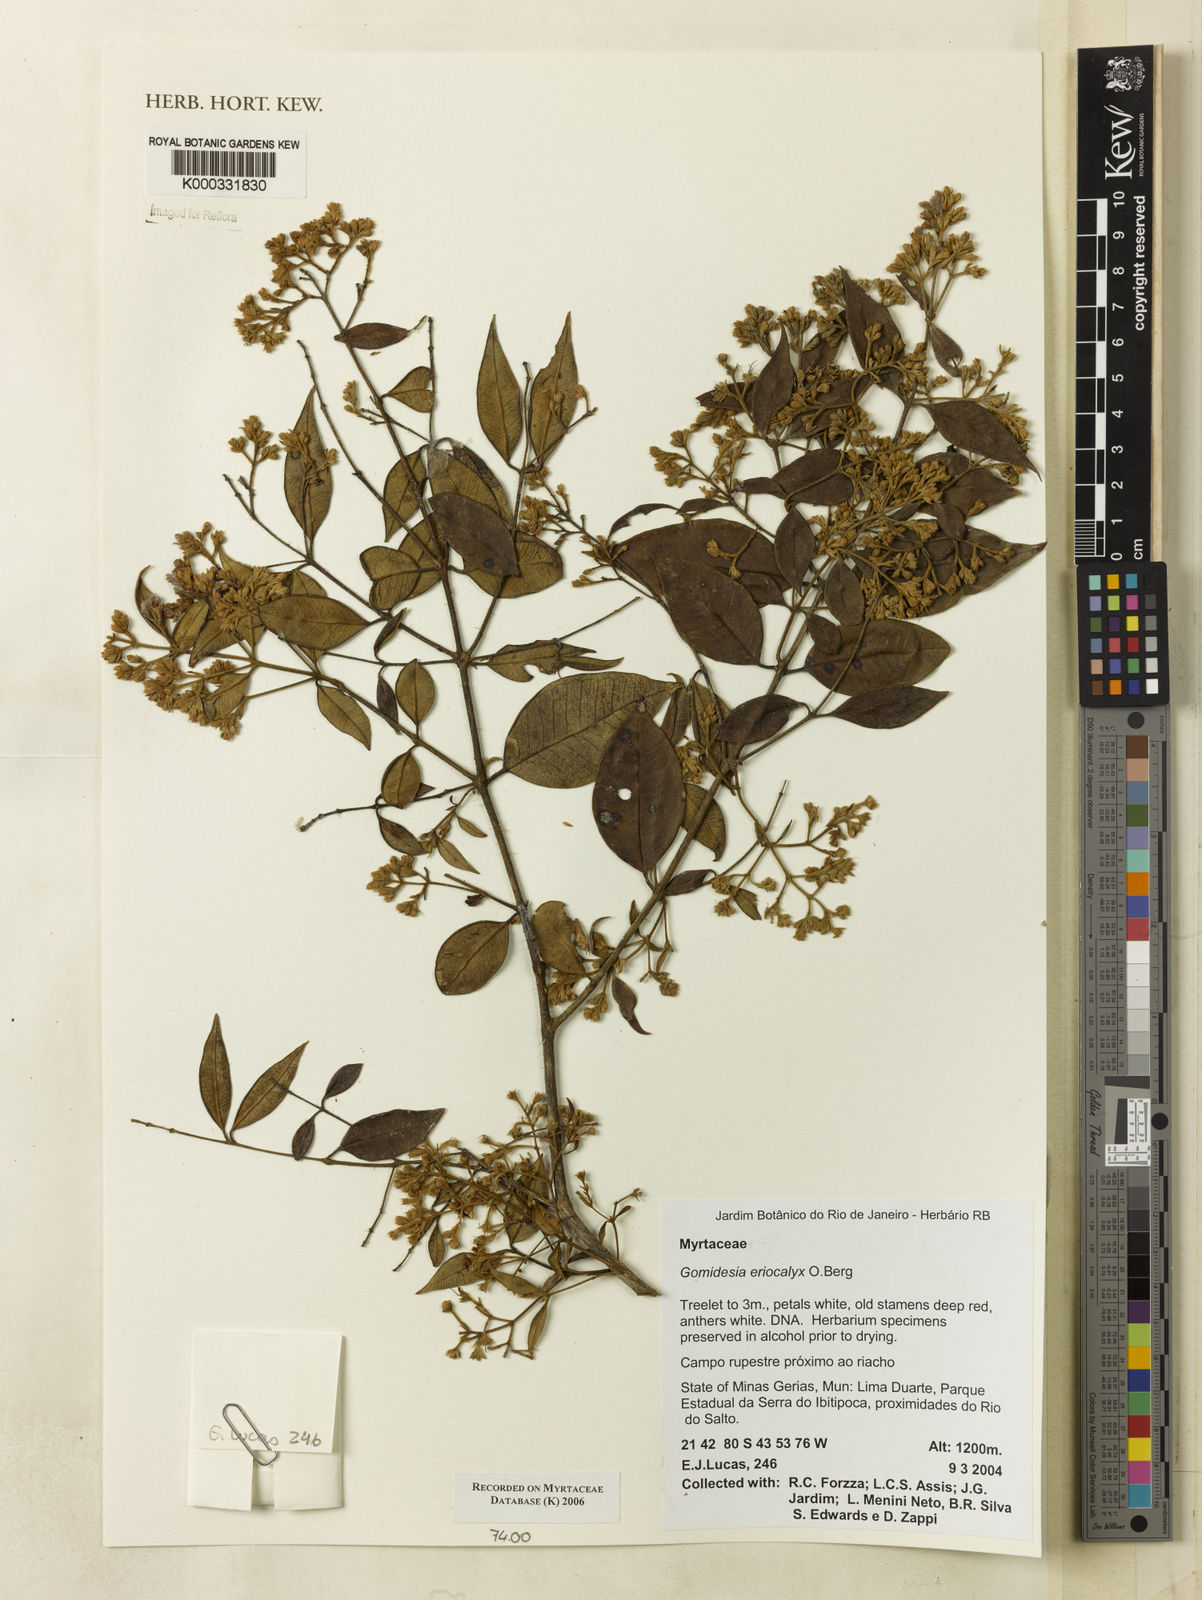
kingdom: Plantae
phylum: Tracheophyta
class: Magnoliopsida
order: Myrtales
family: Myrtaceae
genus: Myrcia
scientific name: Myrcia eriocalyx
